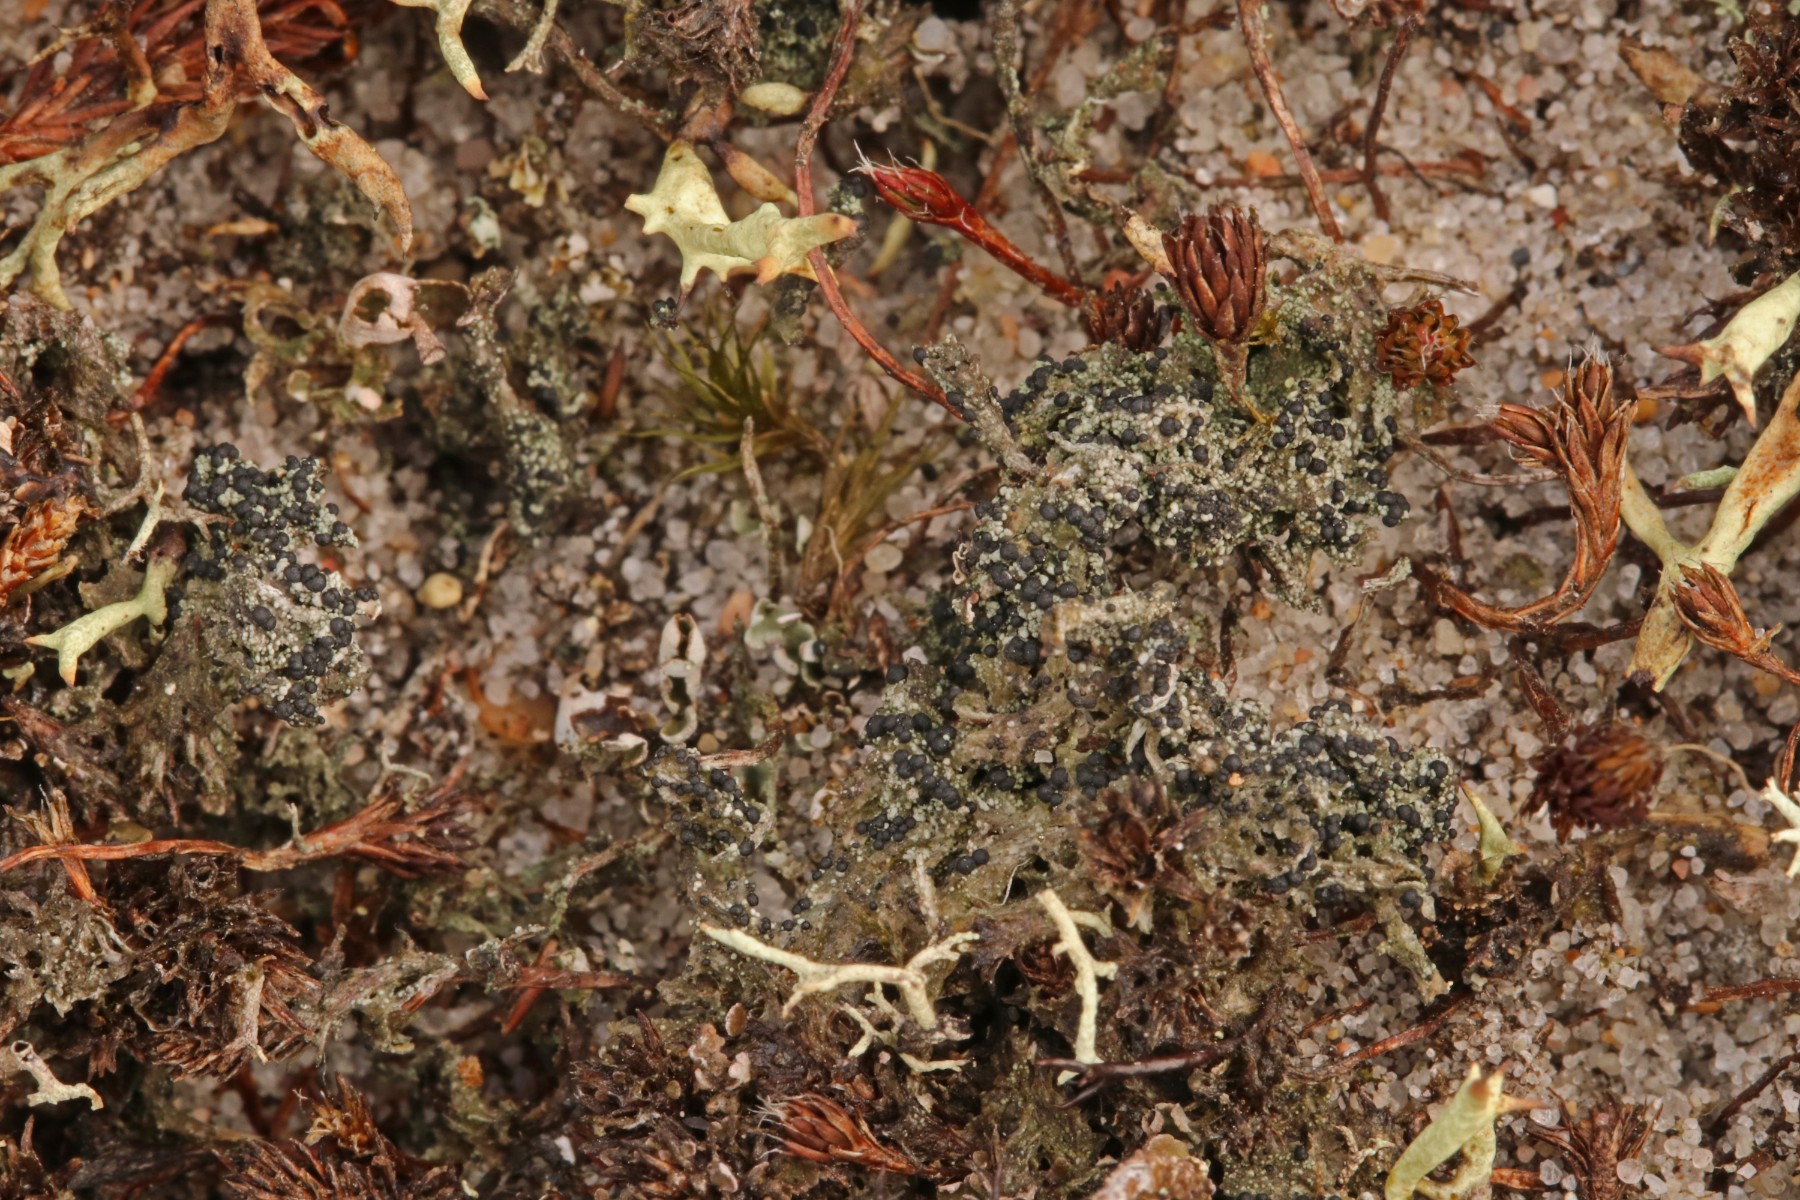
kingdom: Fungi
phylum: Ascomycota
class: Lecanoromycetes
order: Lecanorales
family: Byssolomataceae
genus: Micarea
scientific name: Micarea lignaria
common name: tørve-knaplav
